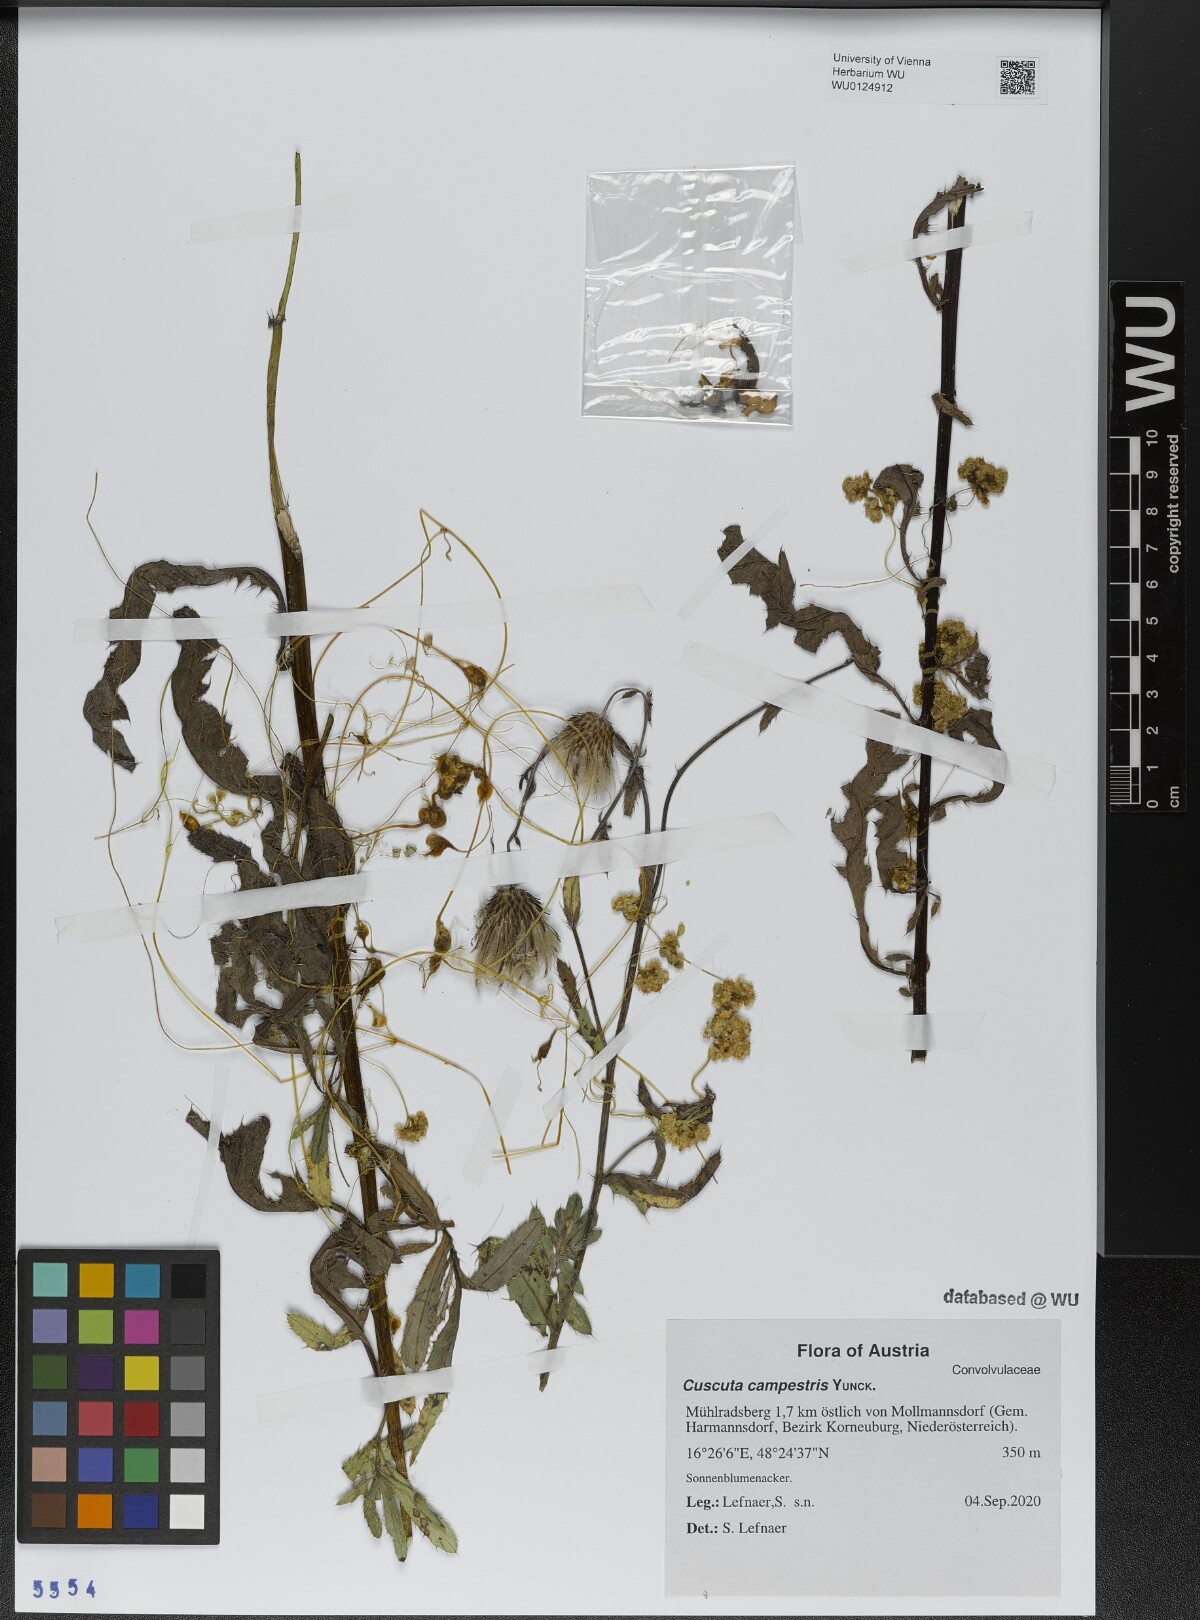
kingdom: Plantae
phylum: Tracheophyta
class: Magnoliopsida
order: Solanales
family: Convolvulaceae
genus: Cuscuta
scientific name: Cuscuta campestris
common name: Yellow dodder
